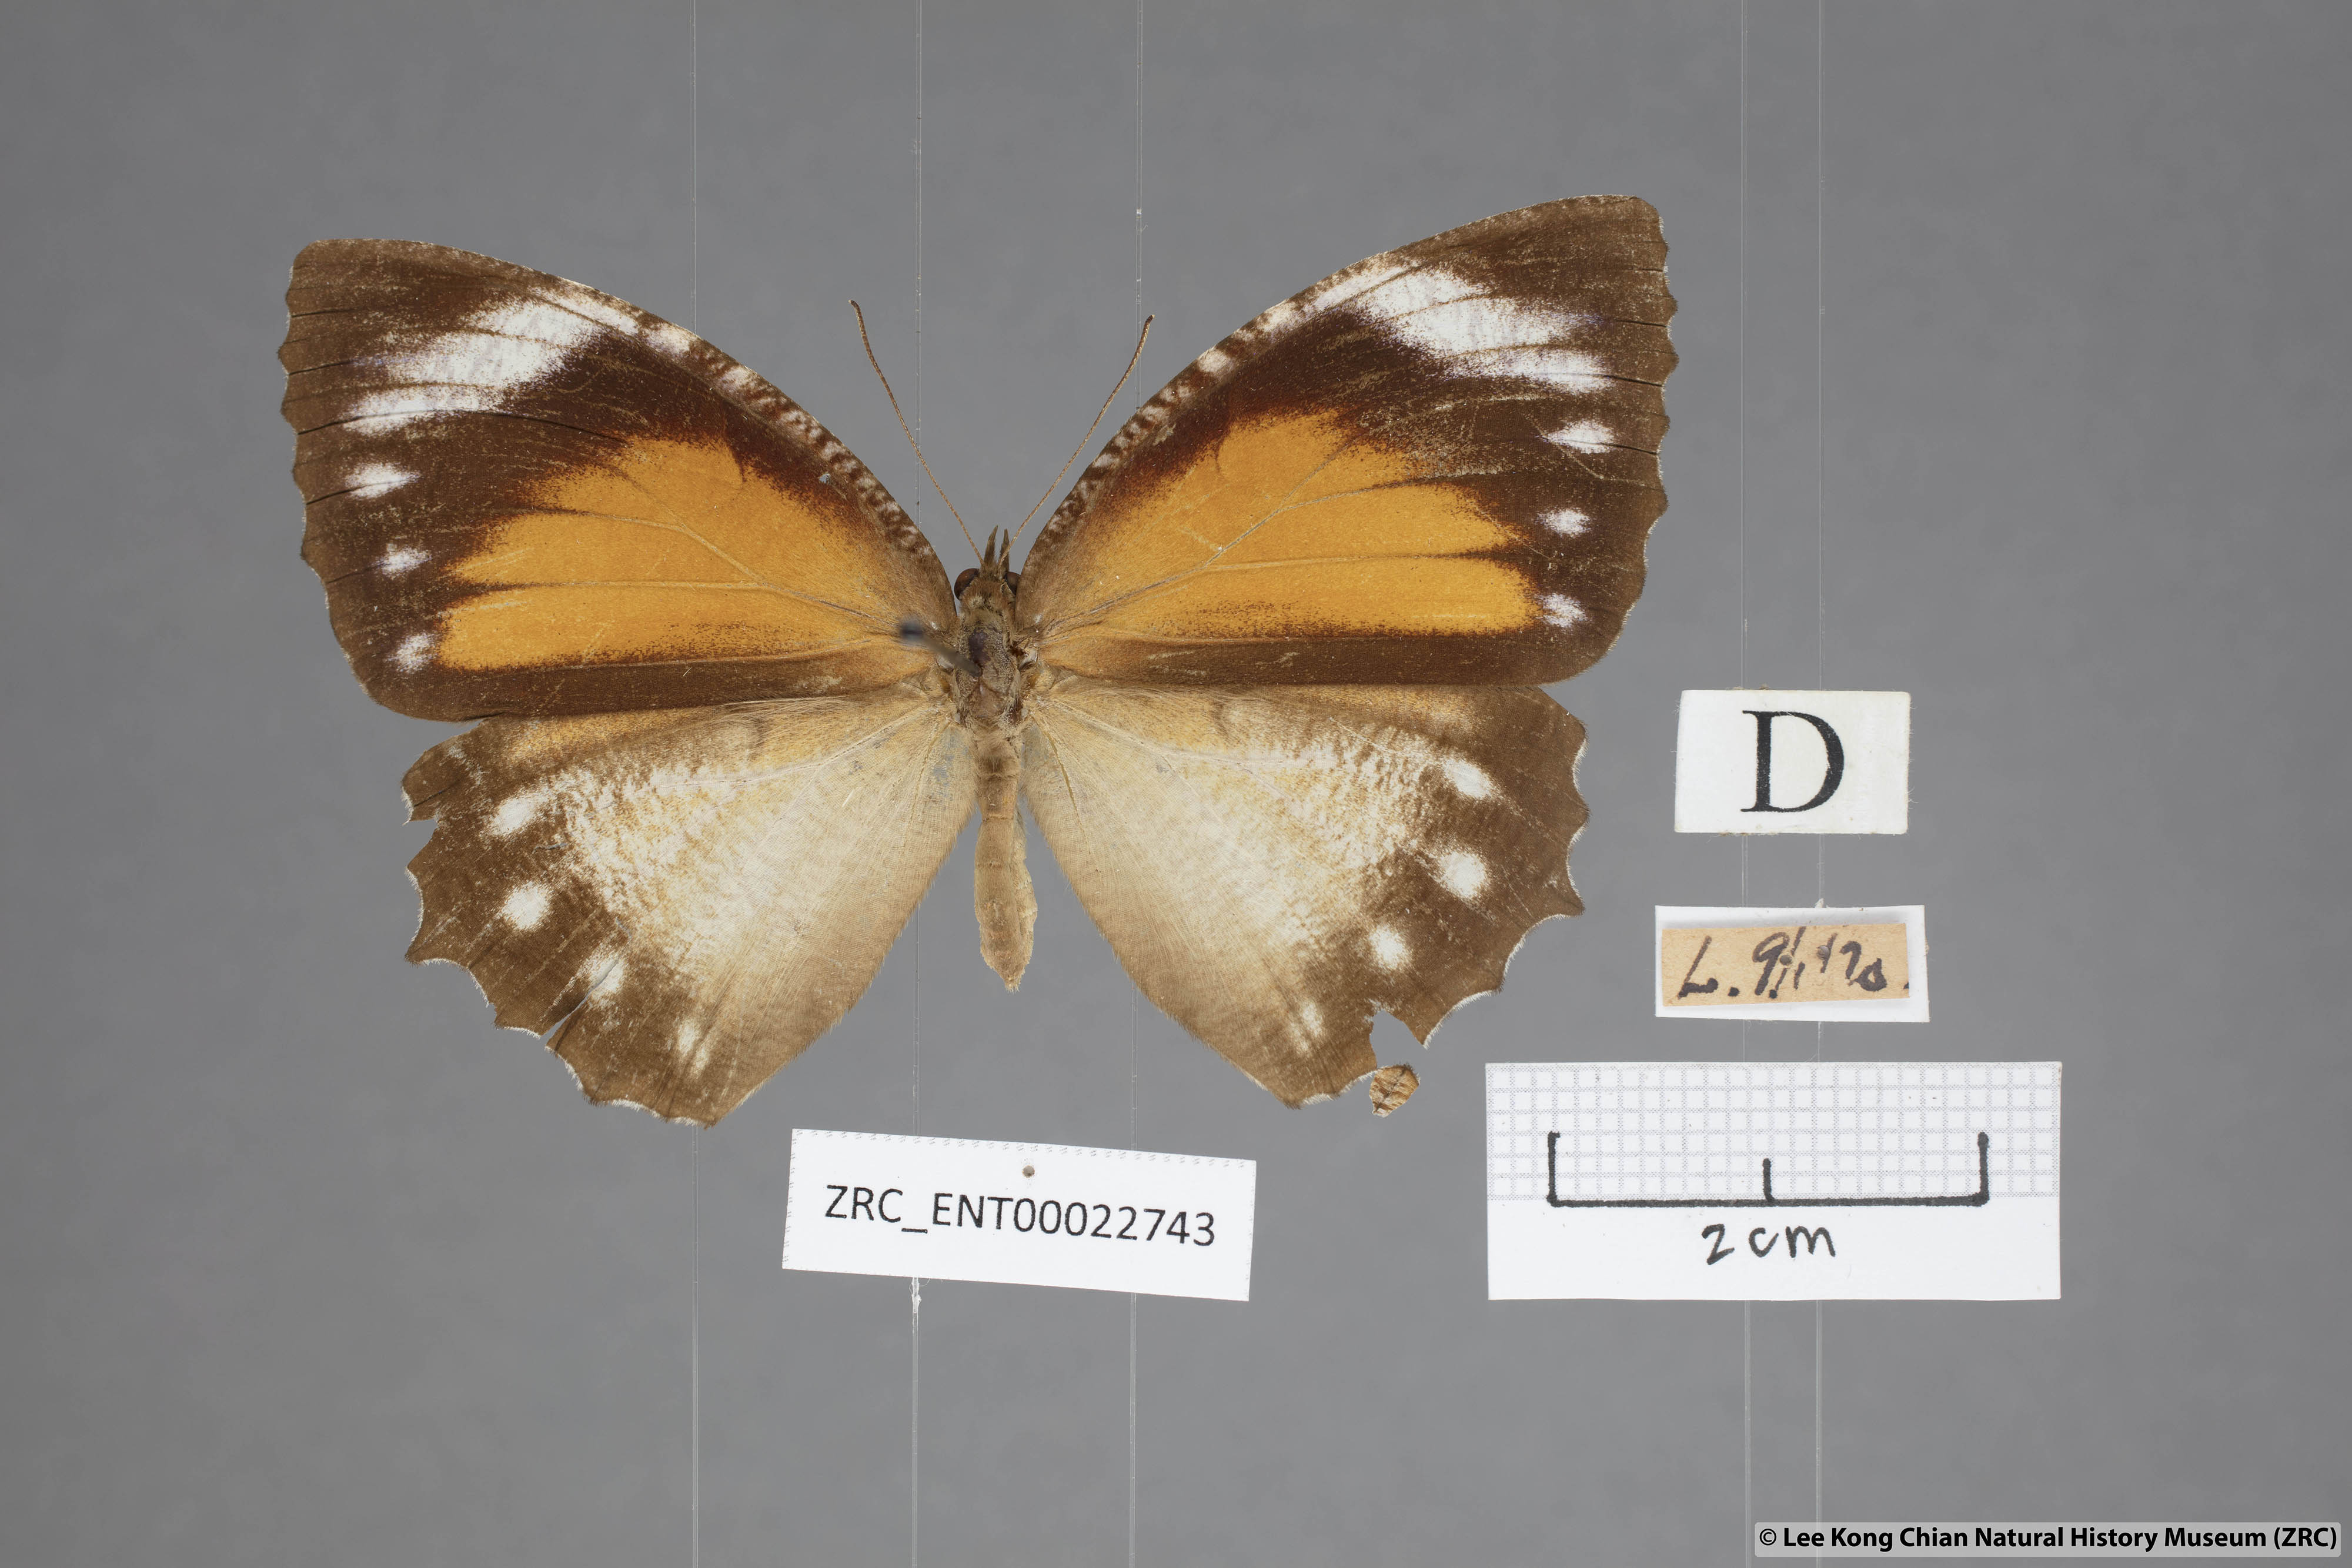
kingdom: Animalia
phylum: Arthropoda
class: Insecta
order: Lepidoptera
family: Nymphalidae
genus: Elymnias
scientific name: Elymnias hypermnestra
